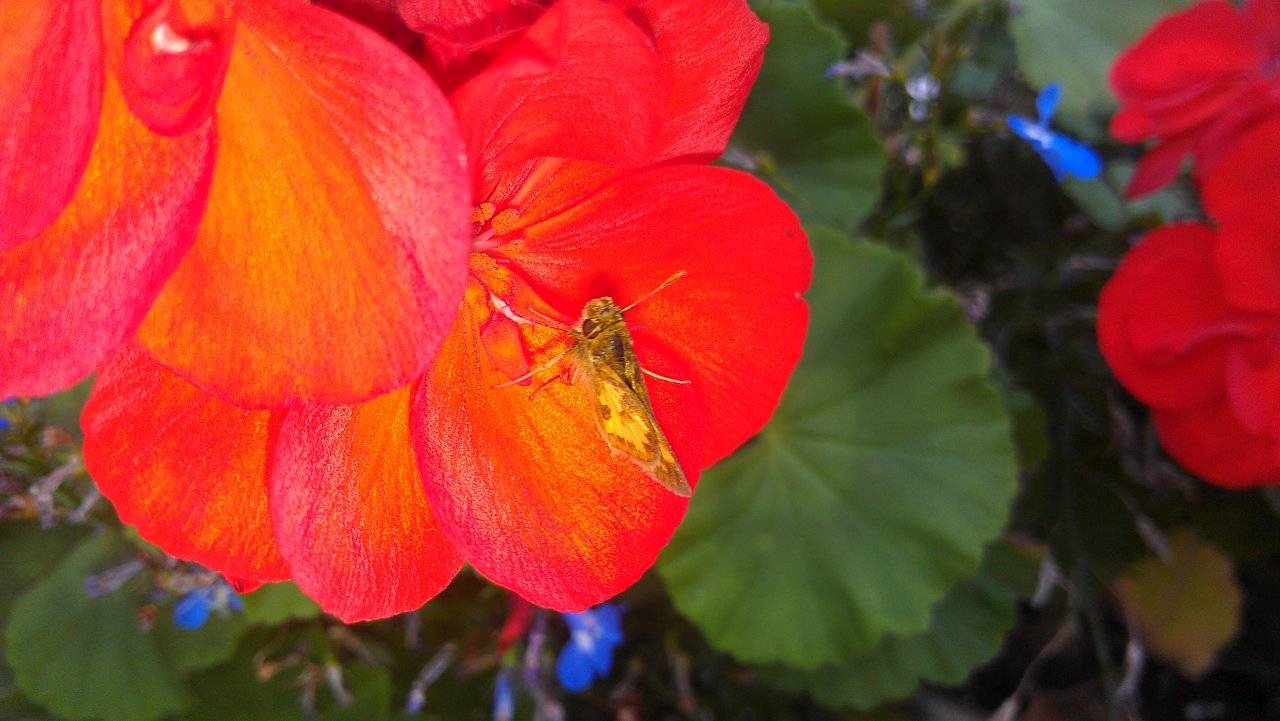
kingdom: Animalia
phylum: Arthropoda
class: Insecta
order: Lepidoptera
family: Hesperiidae
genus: Polites
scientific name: Polites coras
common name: Peck's Skipper
